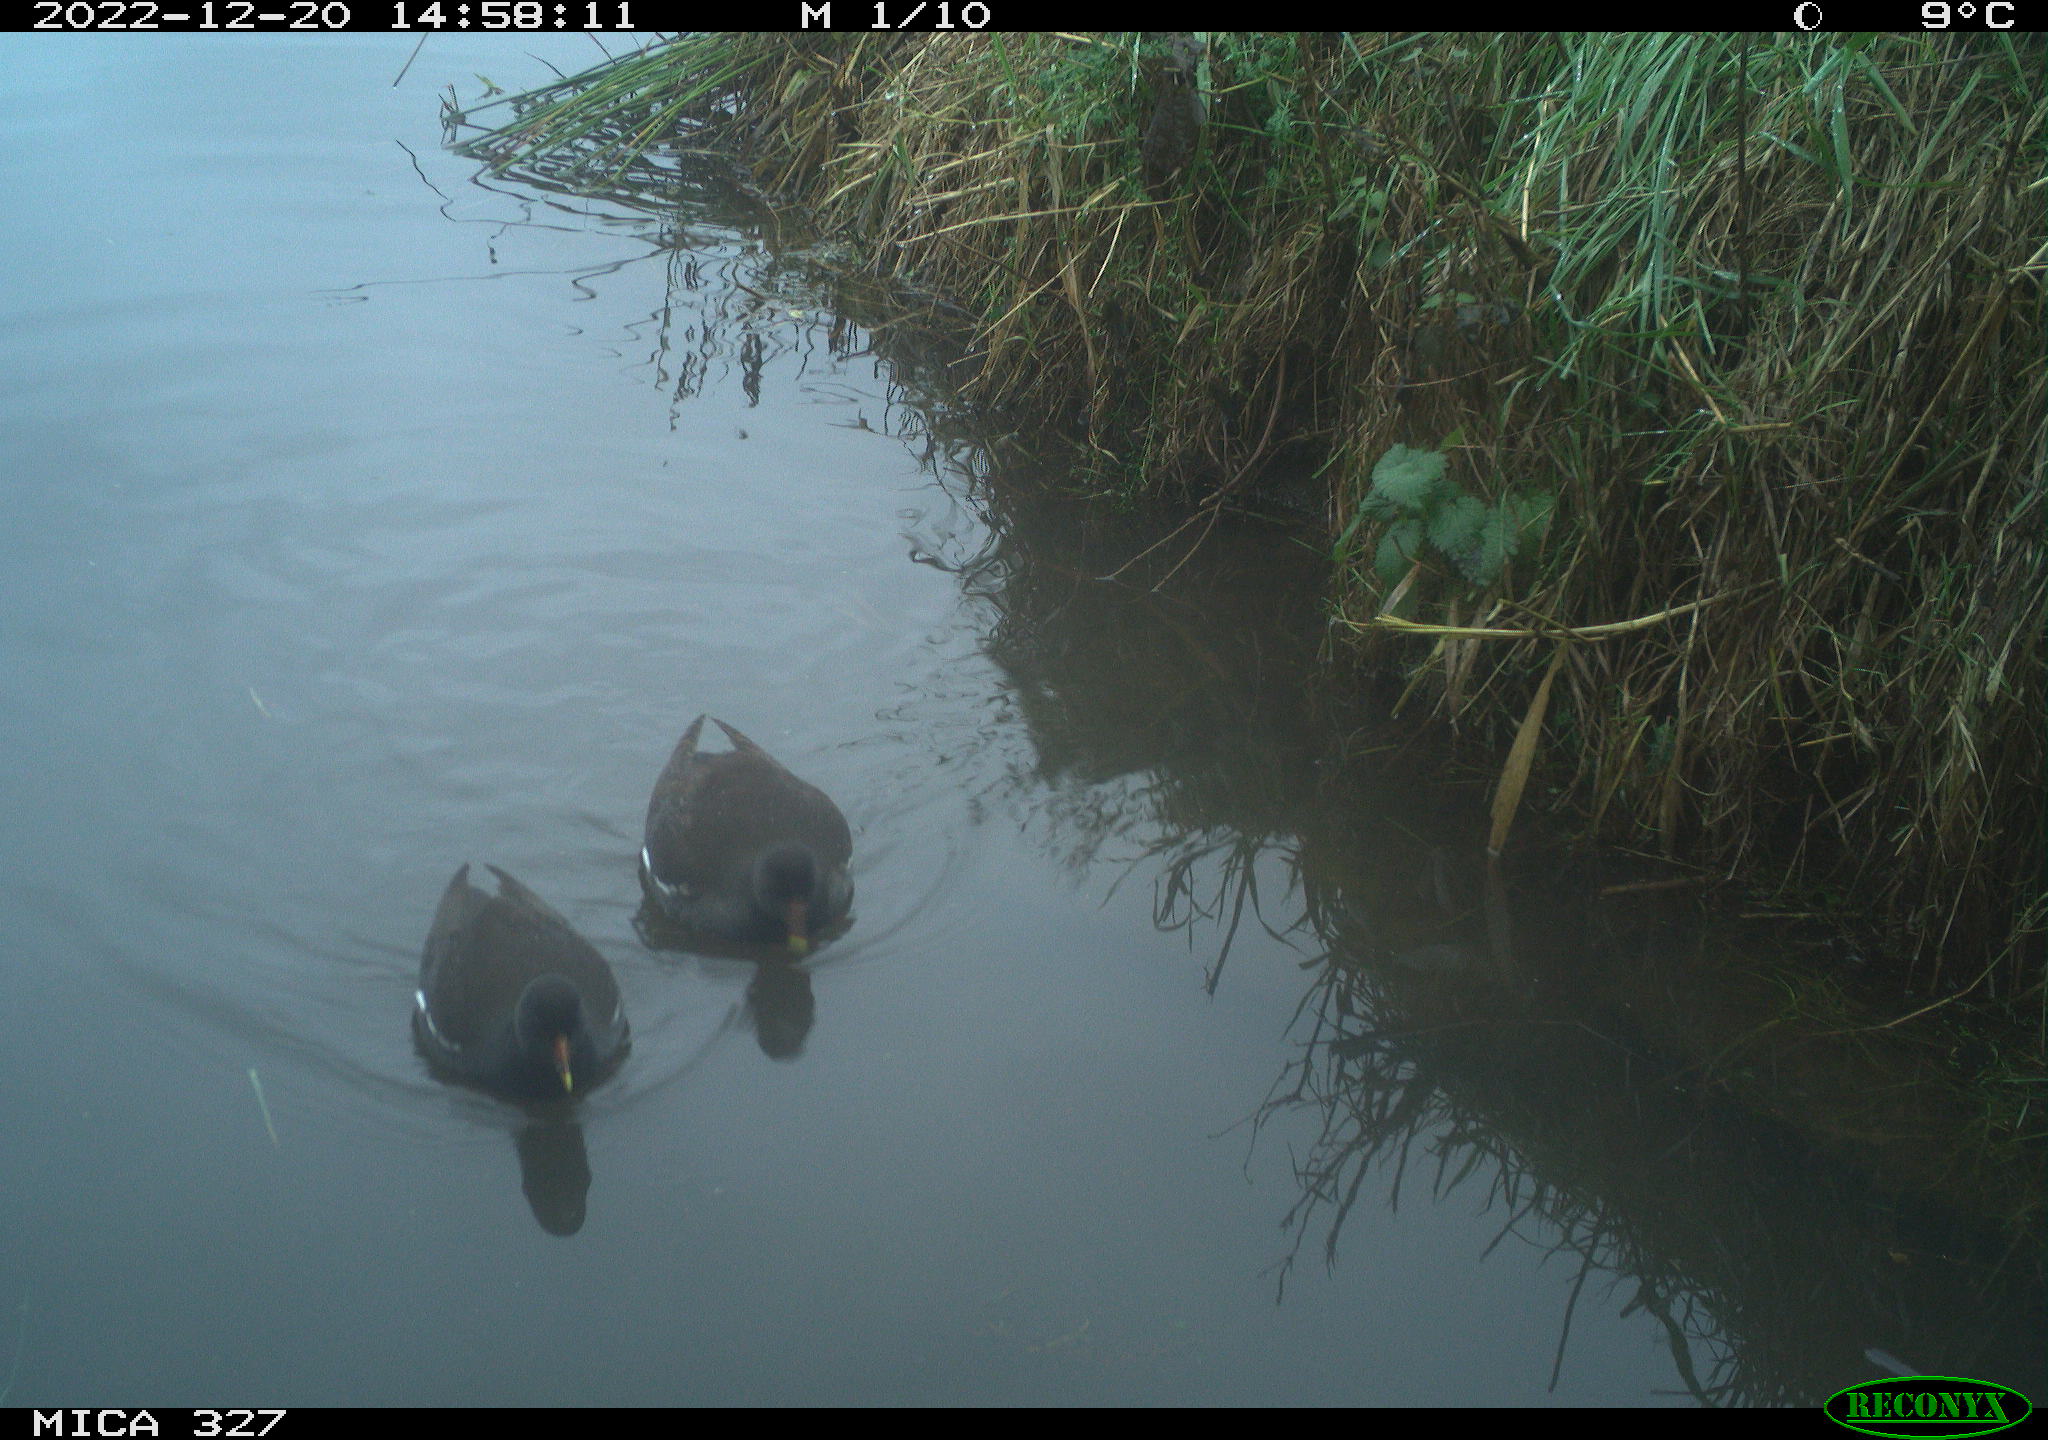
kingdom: Animalia
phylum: Chordata
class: Aves
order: Gruiformes
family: Rallidae
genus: Gallinula
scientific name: Gallinula chloropus
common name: Common moorhen
